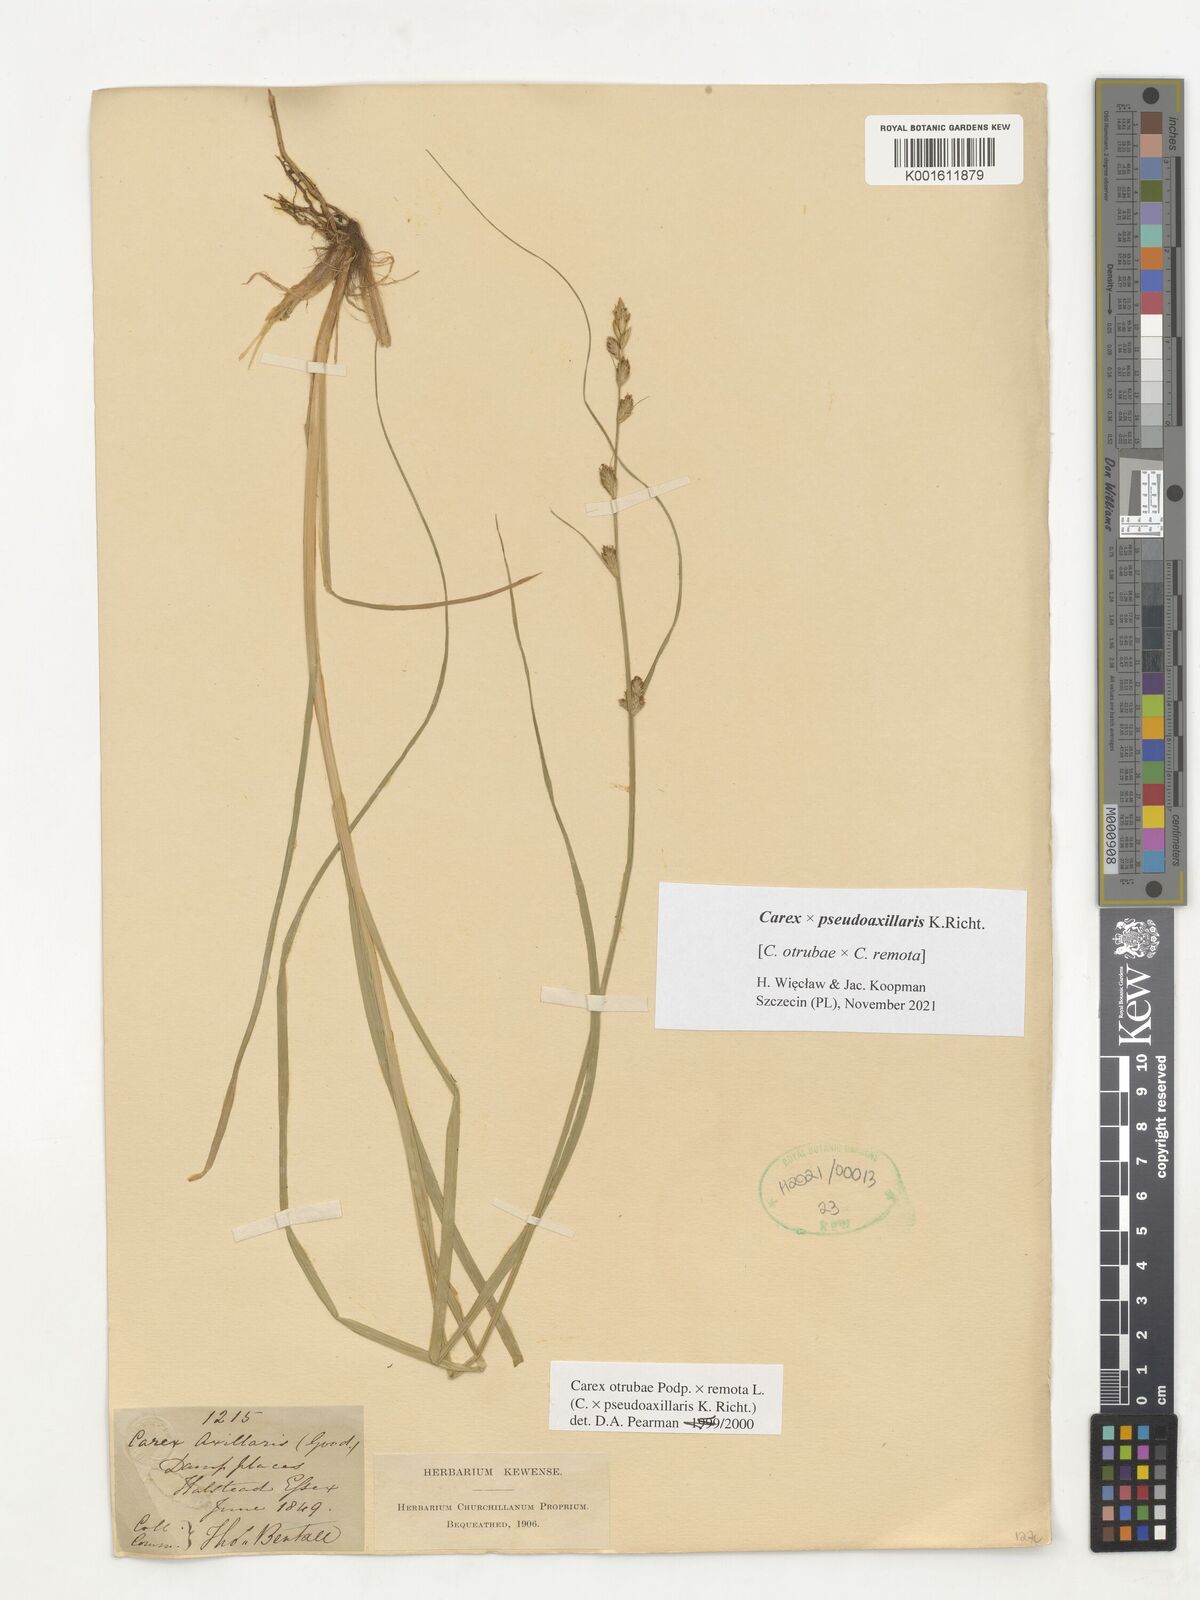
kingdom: Plantae
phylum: Tracheophyta
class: Liliopsida
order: Poales
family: Cyperaceae
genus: Carex
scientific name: Carex pseudoaxillaris
